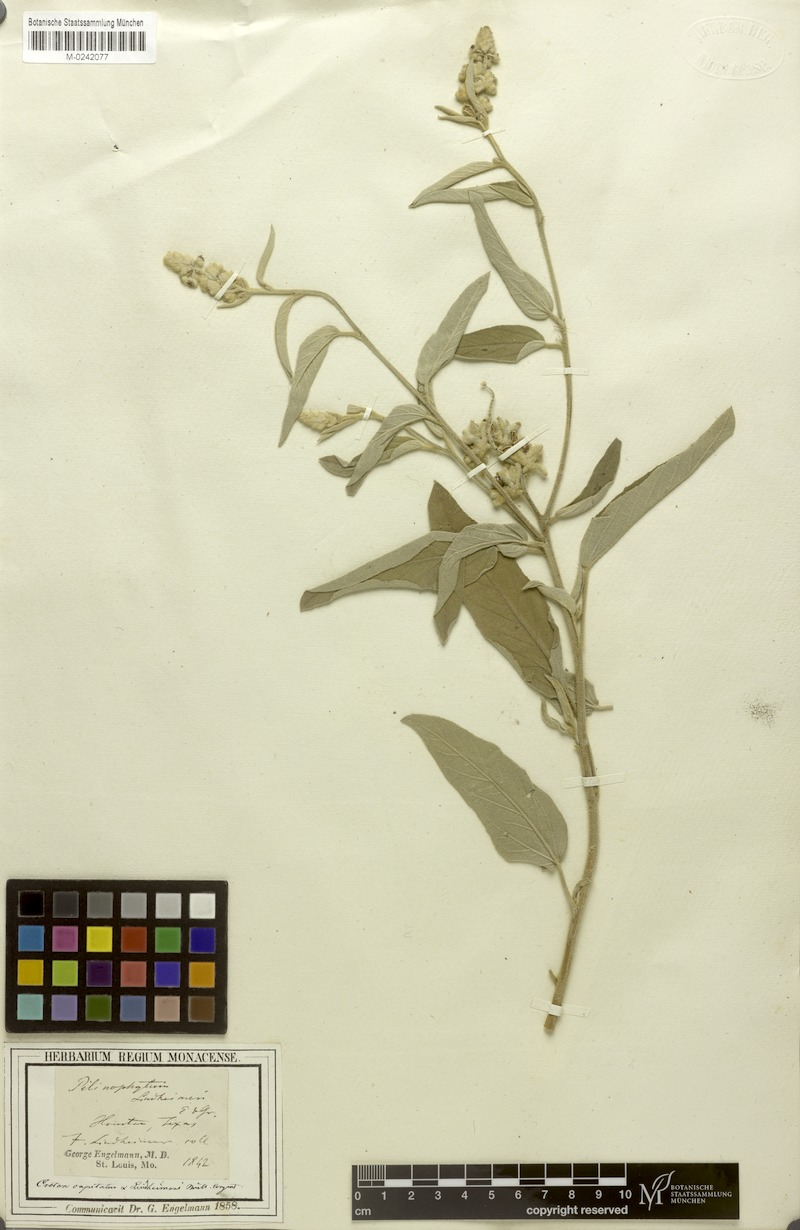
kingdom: Plantae
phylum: Tracheophyta
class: Magnoliopsida
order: Malpighiales
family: Euphorbiaceae
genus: Croton
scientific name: Croton lindheimeri
